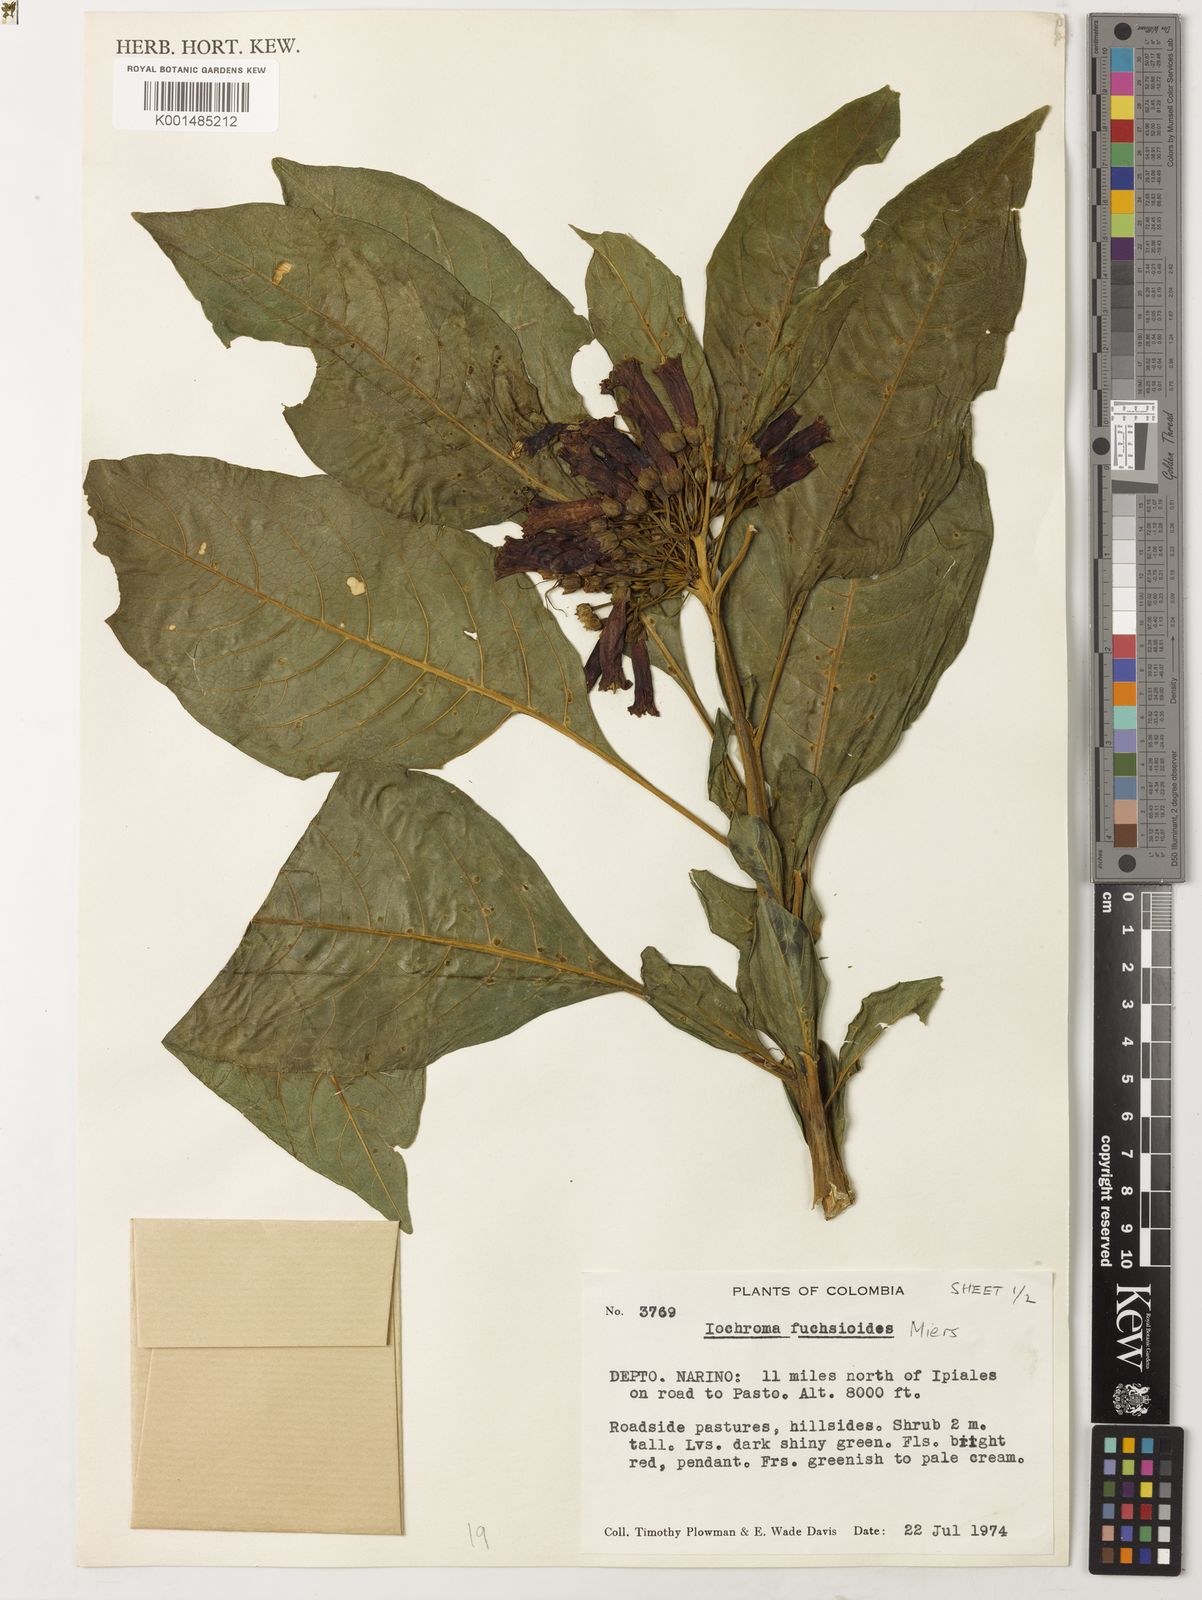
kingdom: Plantae
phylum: Tracheophyta
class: Magnoliopsida
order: Solanales
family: Solanaceae
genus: Iochroma
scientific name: Iochroma fuchsioides
